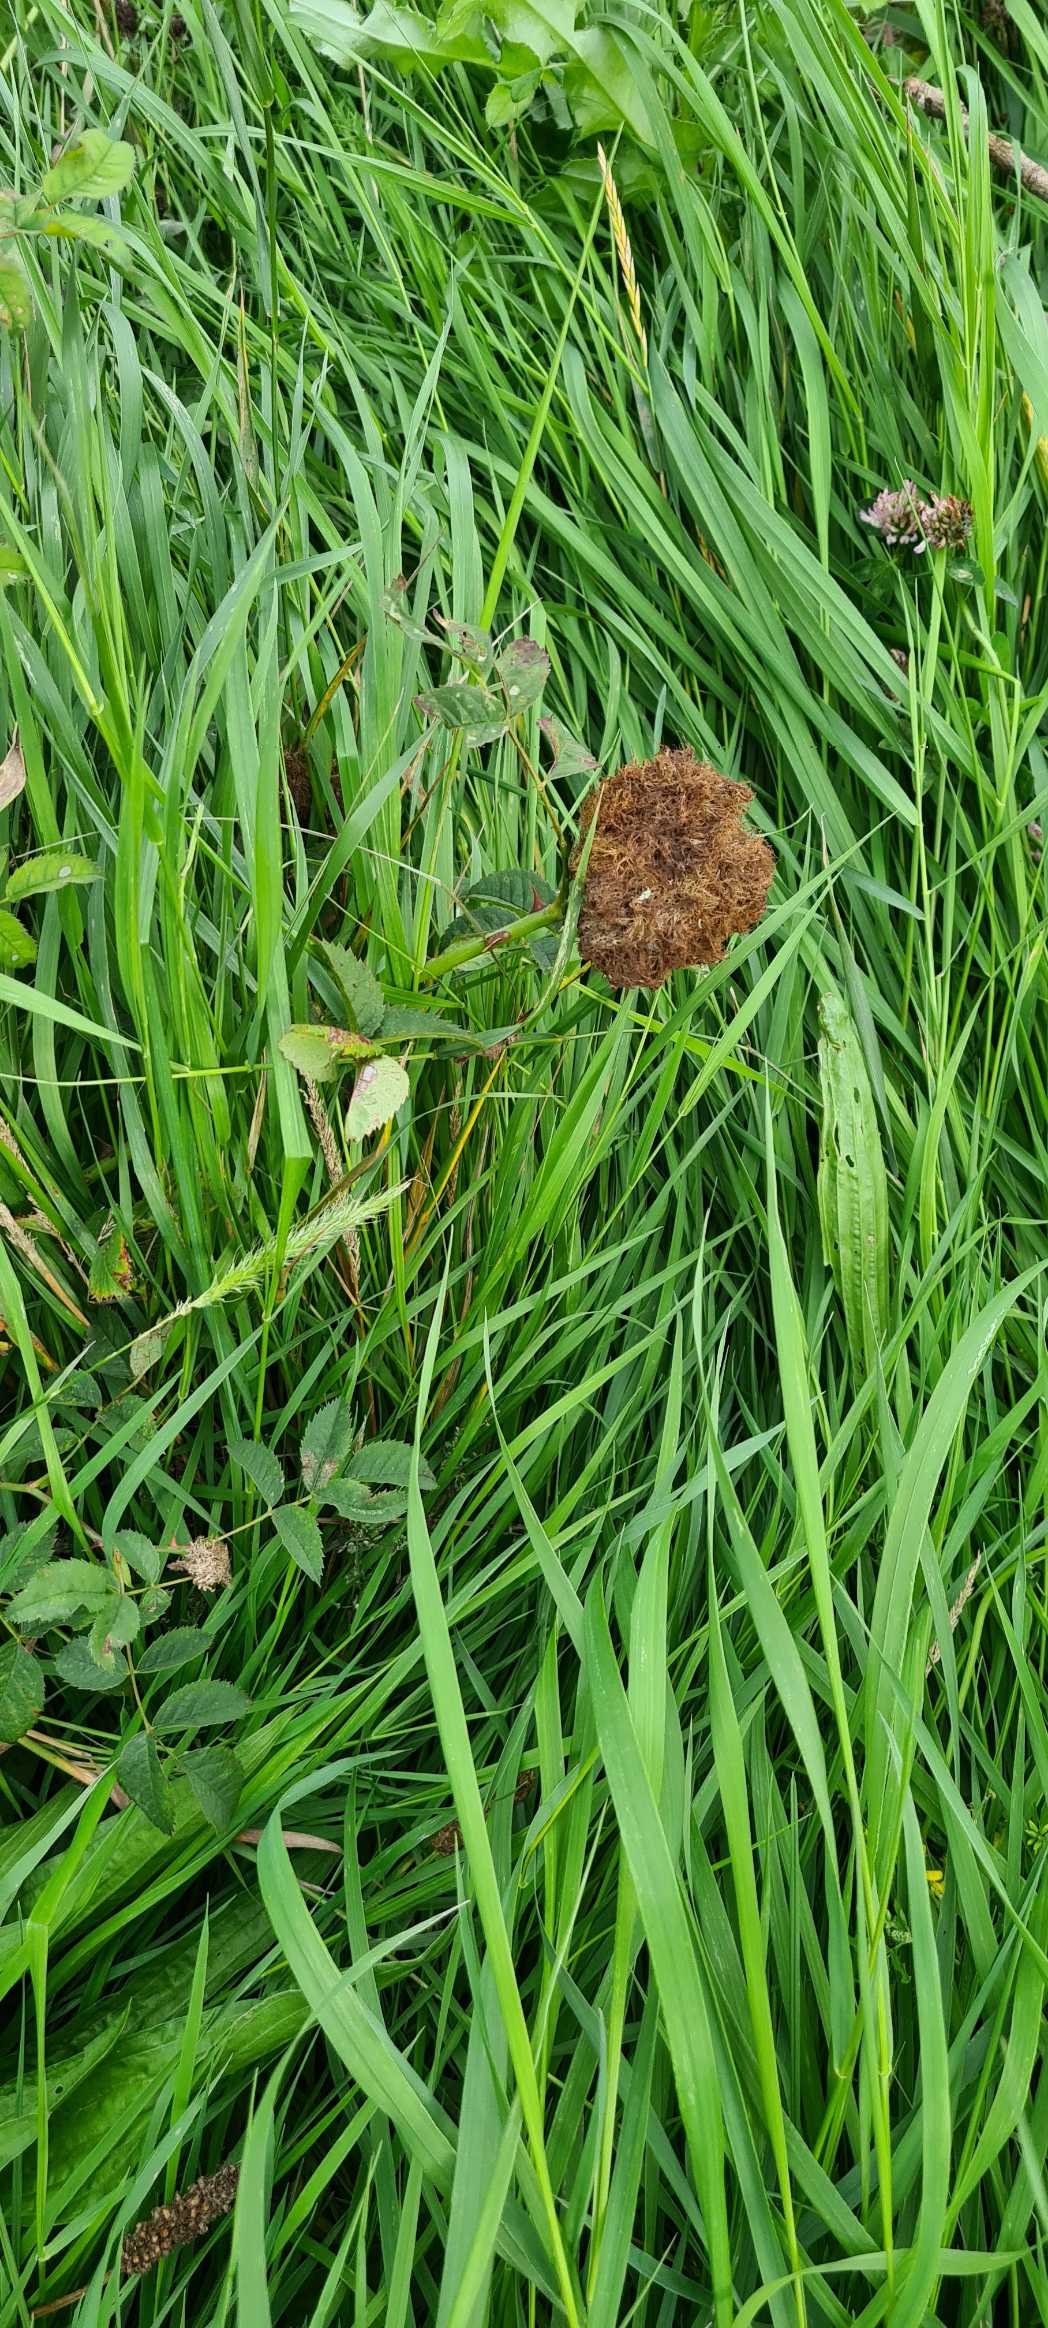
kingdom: Animalia
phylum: Arthropoda
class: Insecta
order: Hymenoptera
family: Cynipidae
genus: Diplolepis
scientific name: Diplolepis rosae
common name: Bedeguargalhveps
